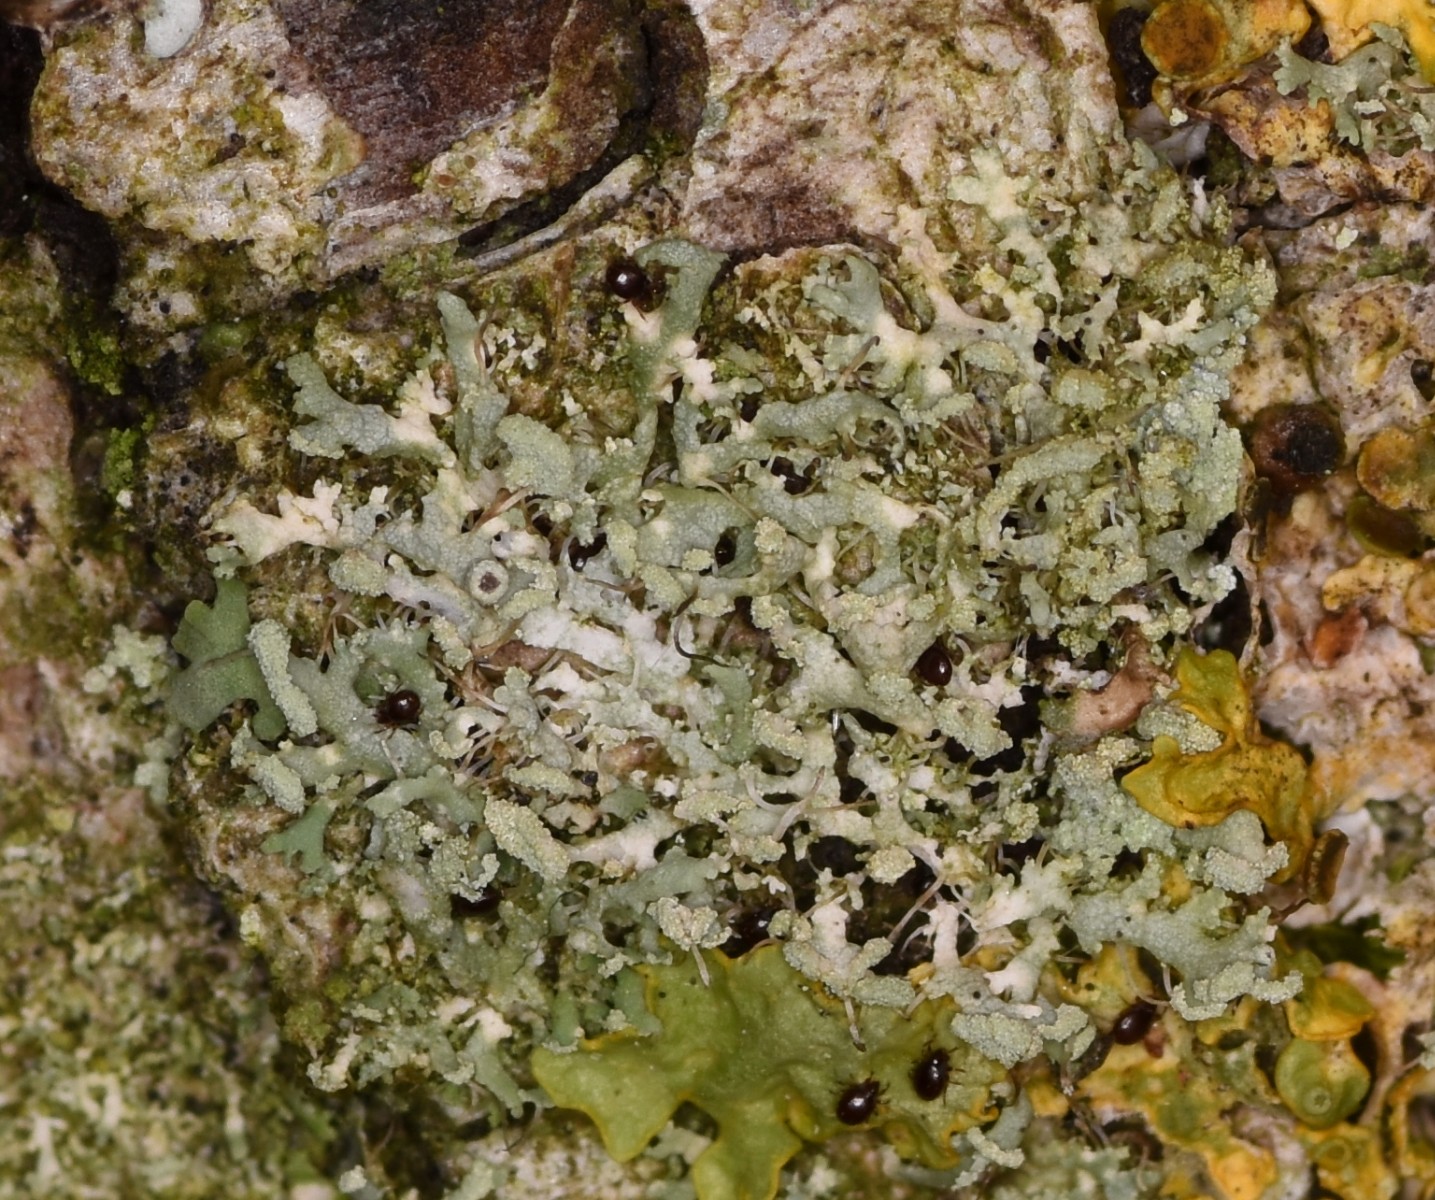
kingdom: Fungi
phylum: Ascomycota
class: Lecanoromycetes
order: Caliciales
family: Physciaceae
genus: Physcia
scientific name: Physcia tenella
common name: spæd rosetlav
